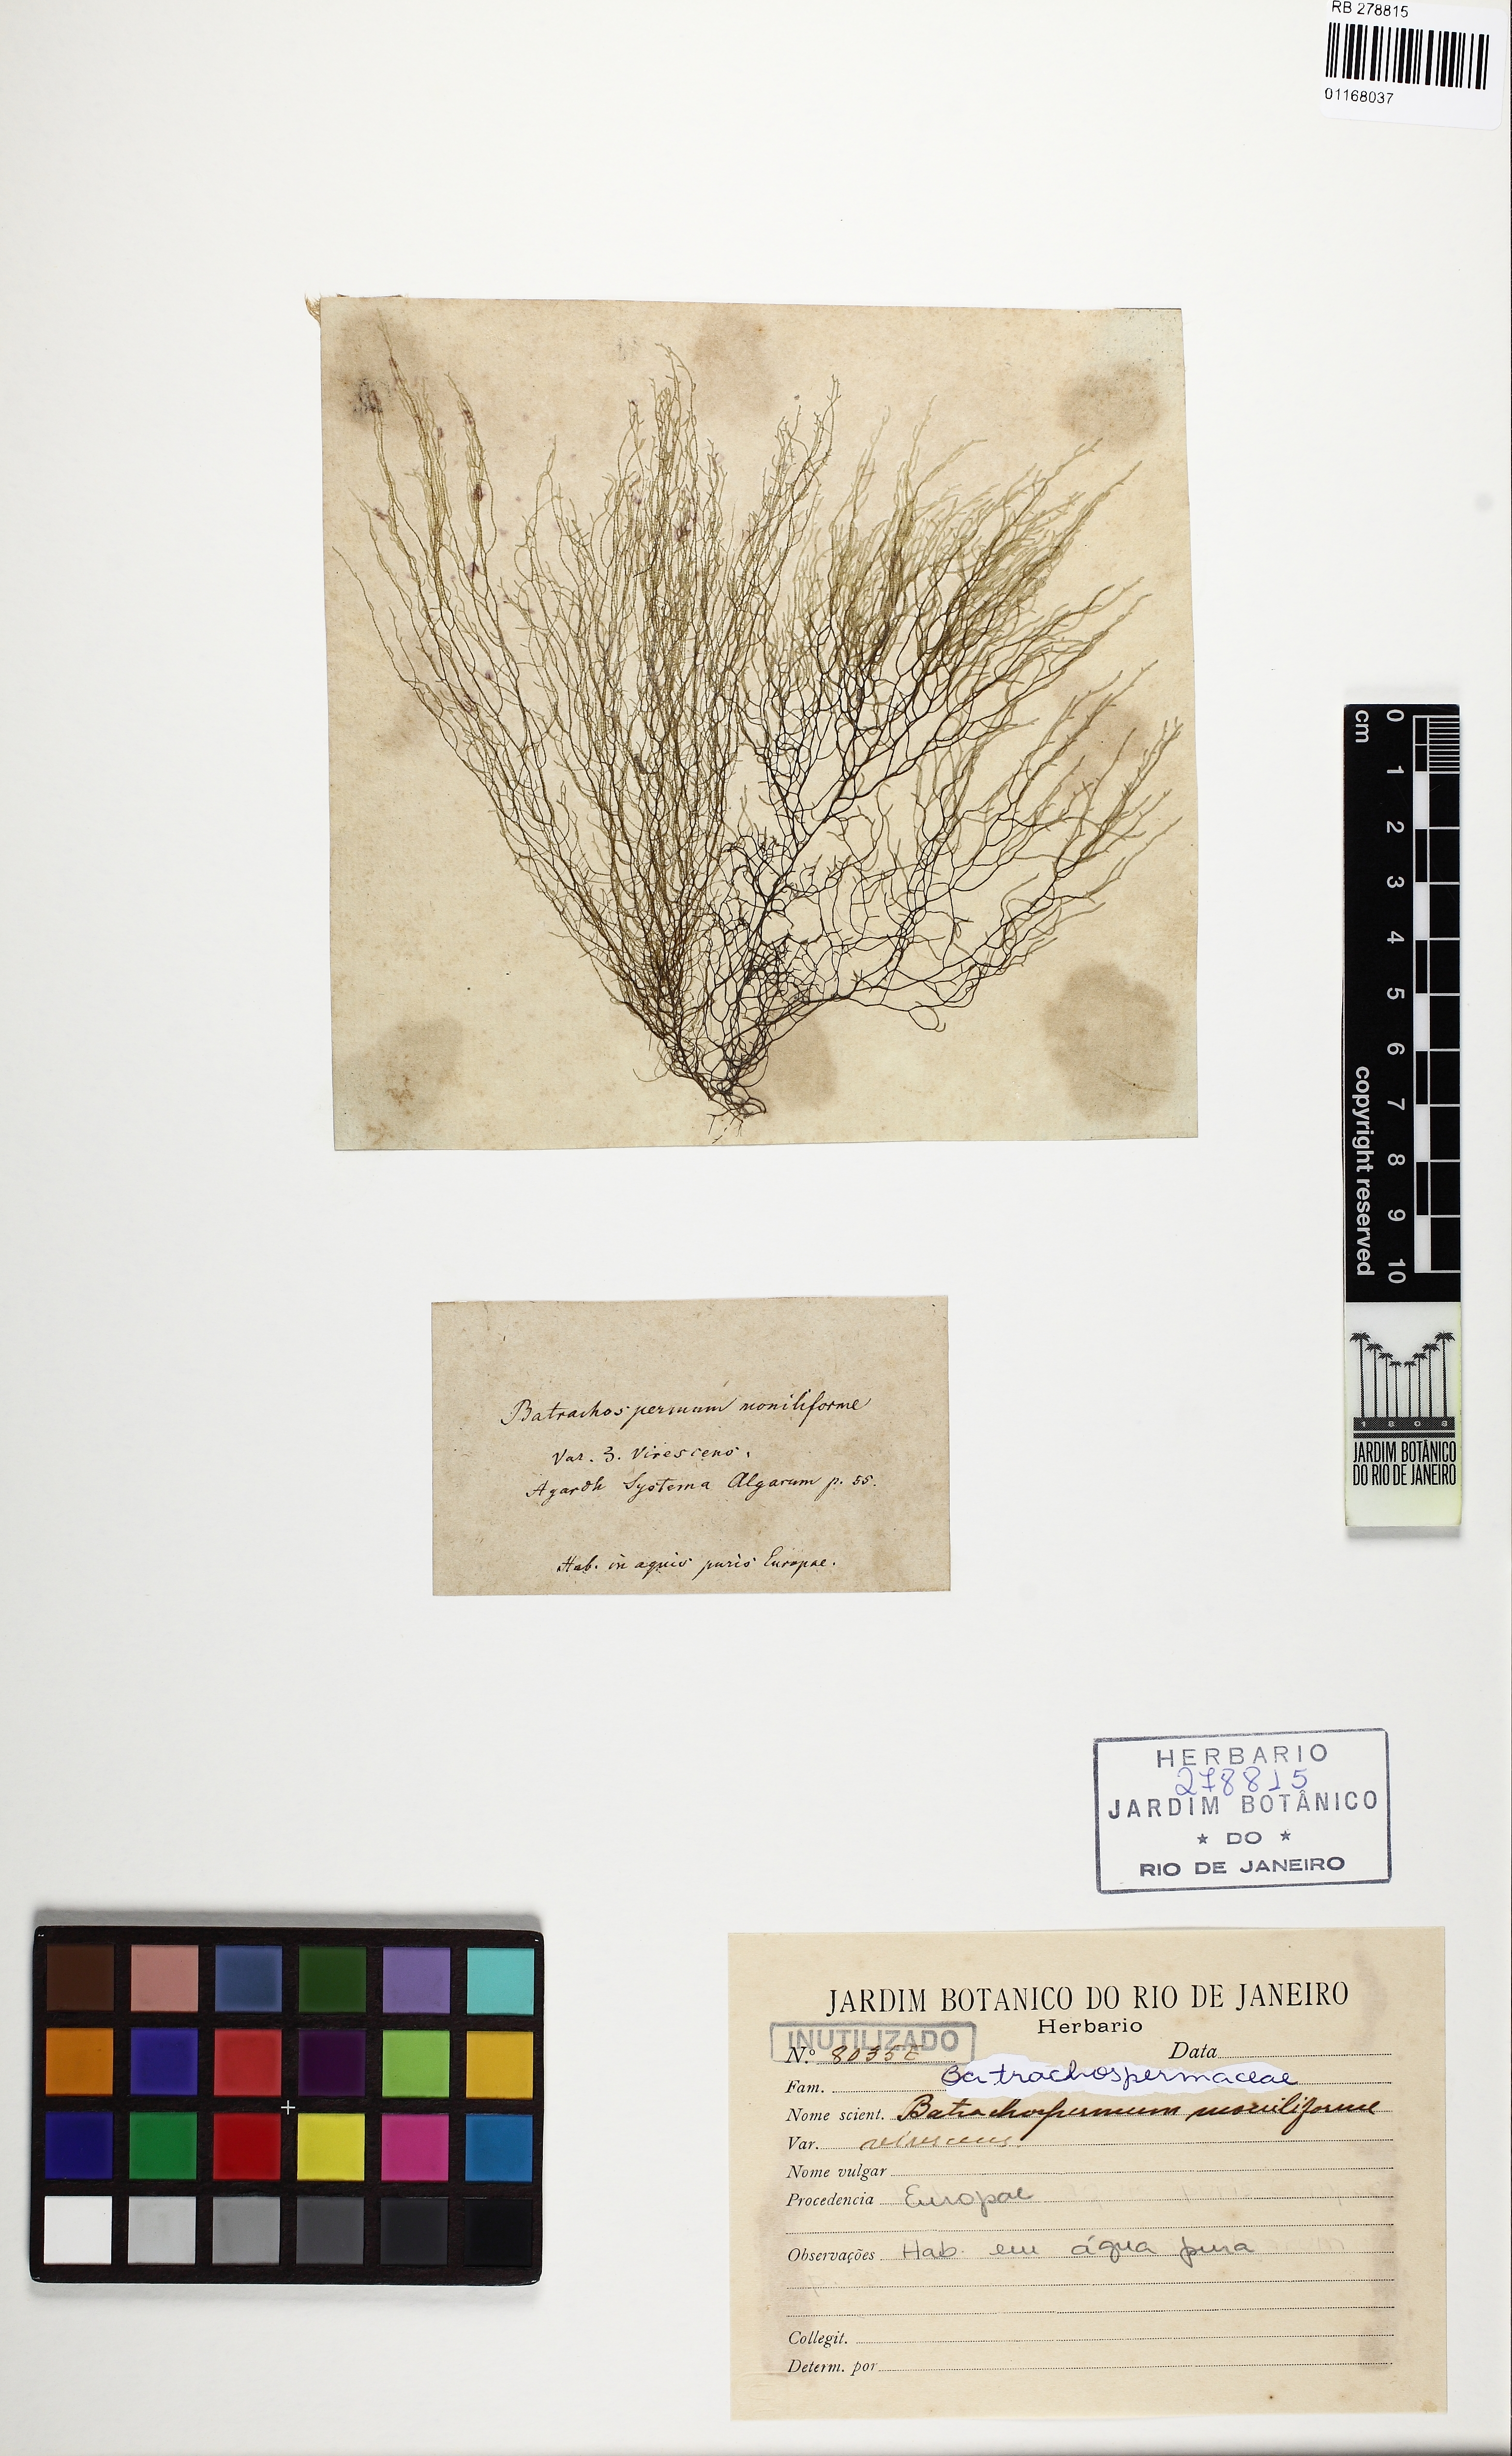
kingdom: Plantae
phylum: Rhodophyta
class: Florideophyceae
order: Batrachospermales
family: Batrachospermaceae
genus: Batrachospermum
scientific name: Batrachospermum gelatinosum
